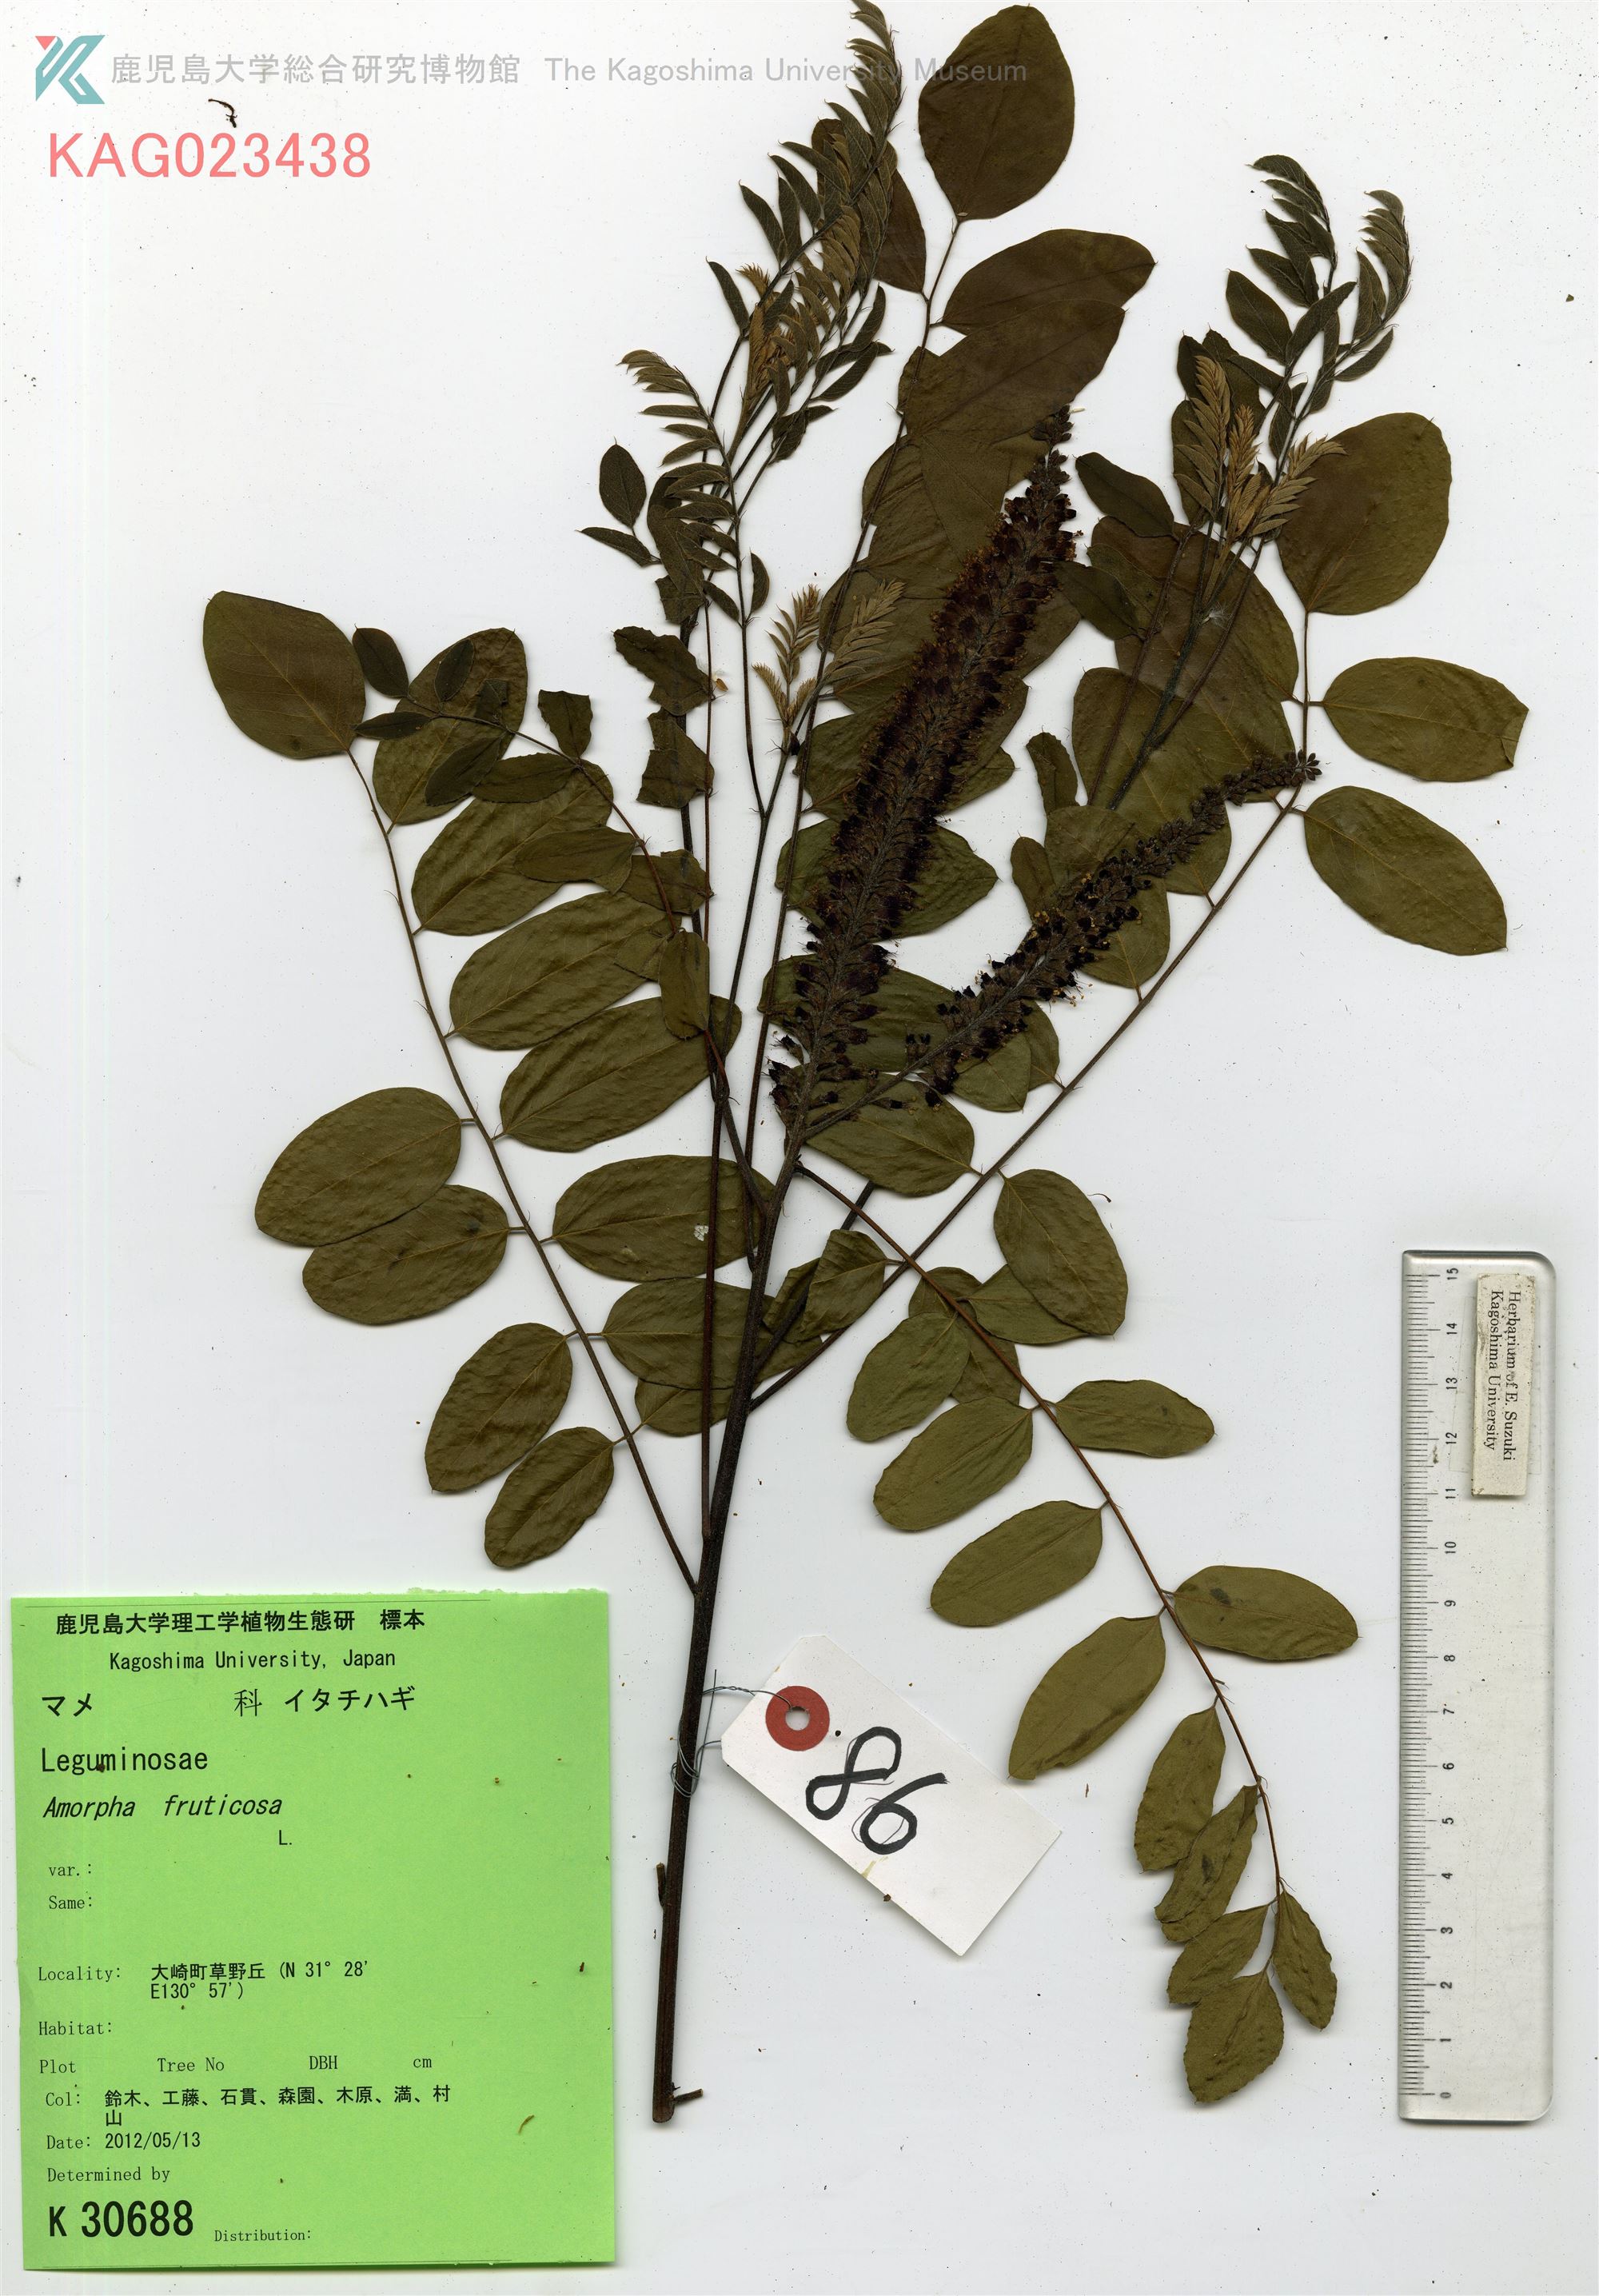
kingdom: Plantae
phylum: Tracheophyta
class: Magnoliopsida
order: Fabales
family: Fabaceae
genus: Amorpha
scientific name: Amorpha fruticosa
